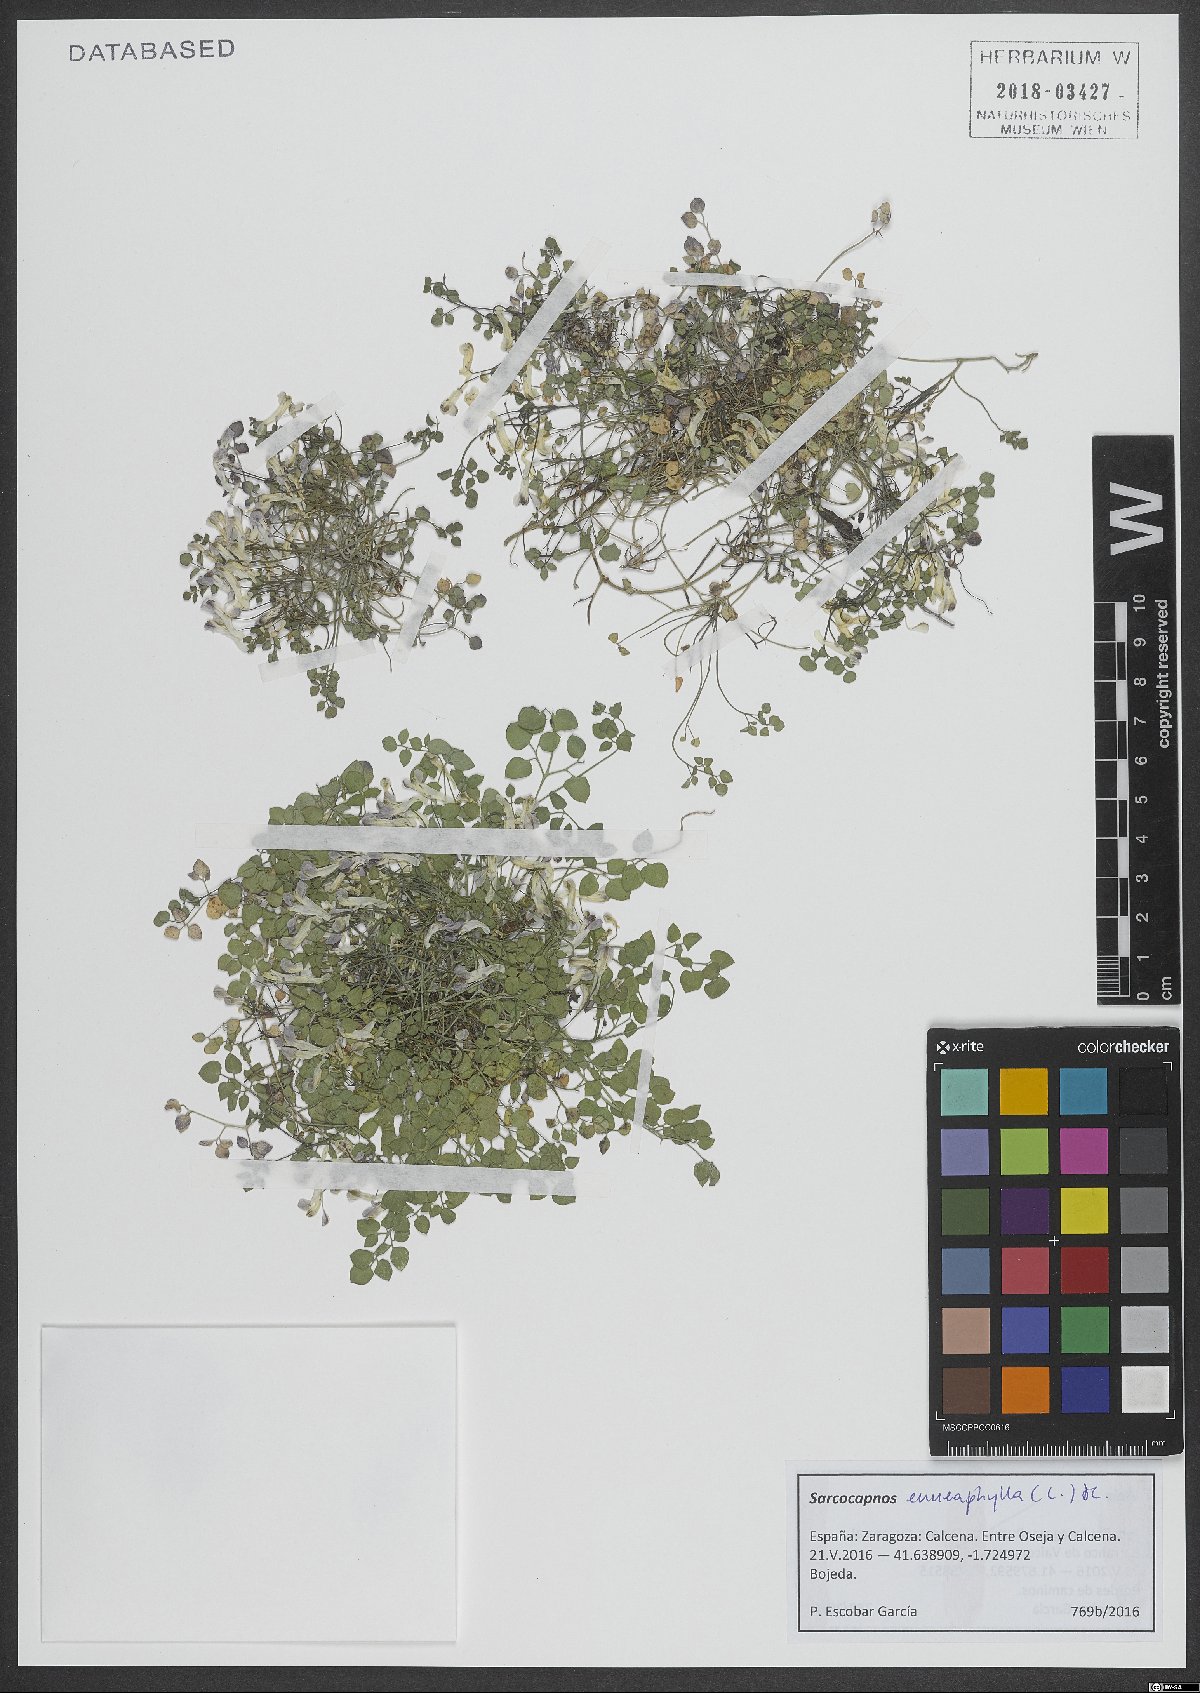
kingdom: Plantae
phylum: Tracheophyta
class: Magnoliopsida
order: Ranunculales
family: Papaveraceae
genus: Sarcocapnos
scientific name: Sarcocapnos enneaphylla
